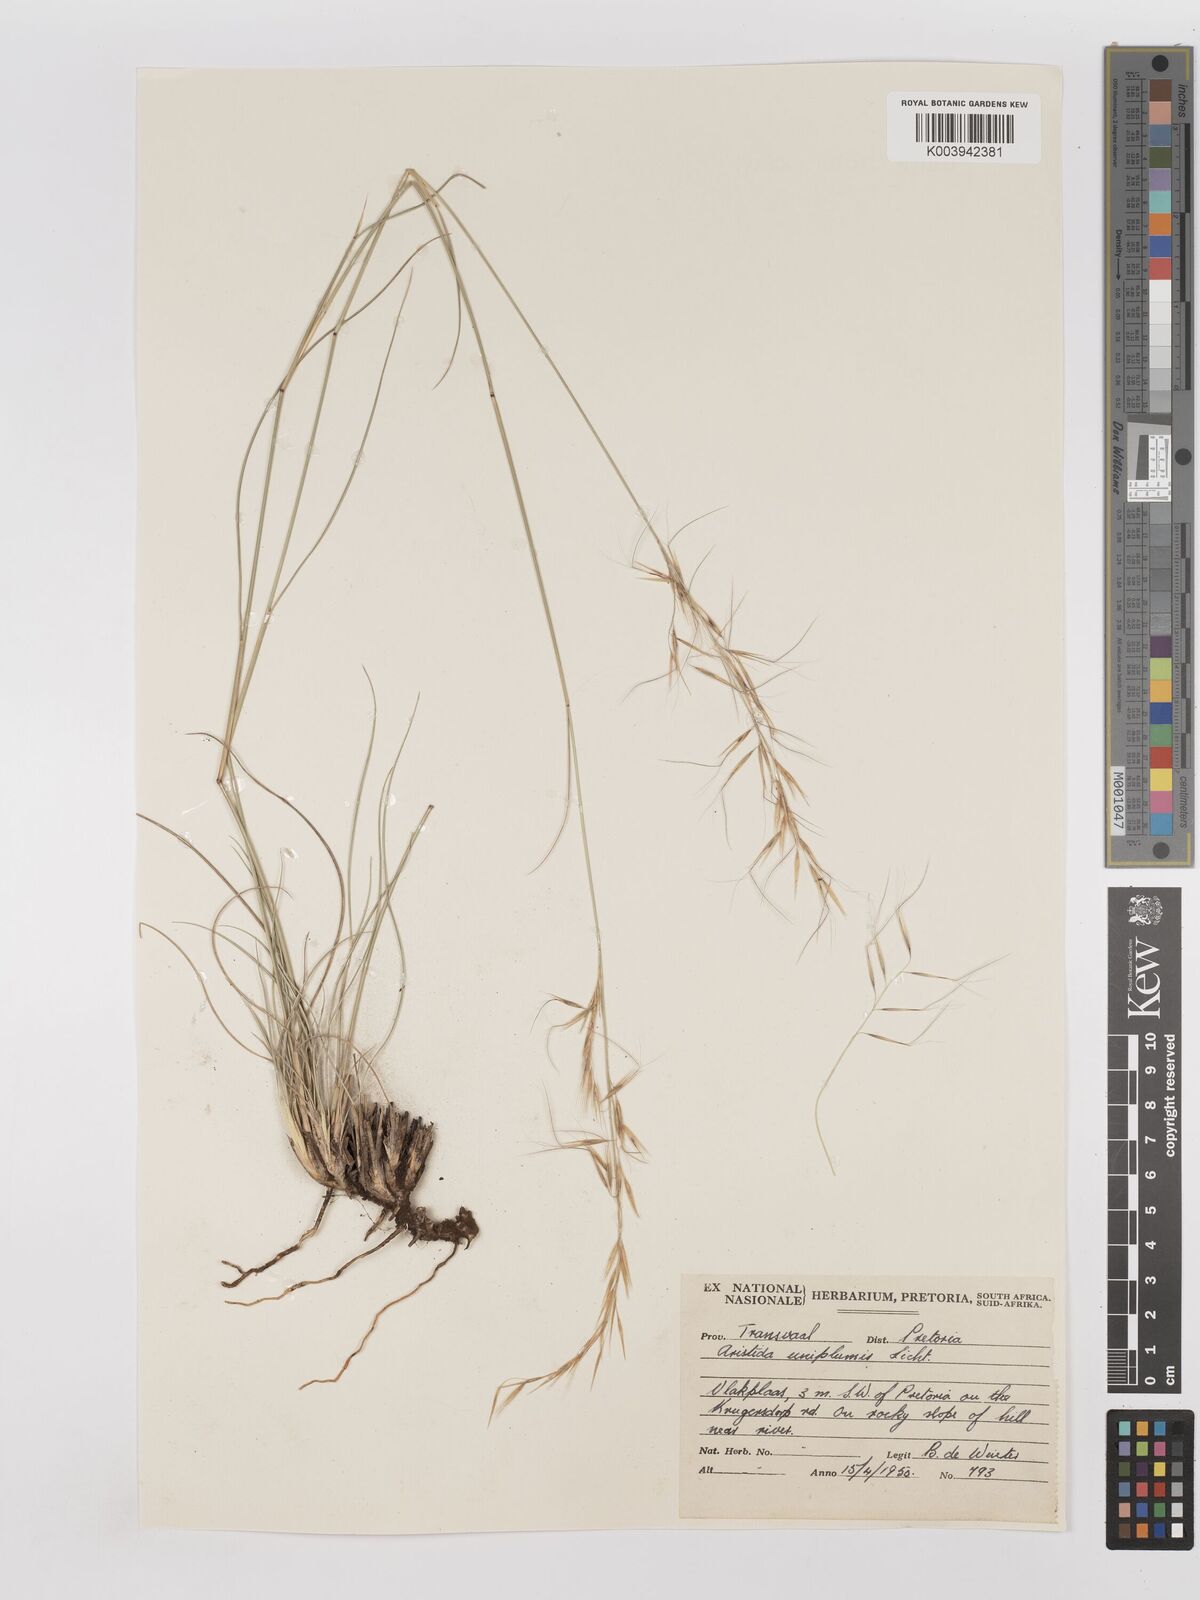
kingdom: Plantae
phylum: Tracheophyta
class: Liliopsida
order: Poales
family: Poaceae
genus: Stipagrostis
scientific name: Stipagrostis uniplumis
